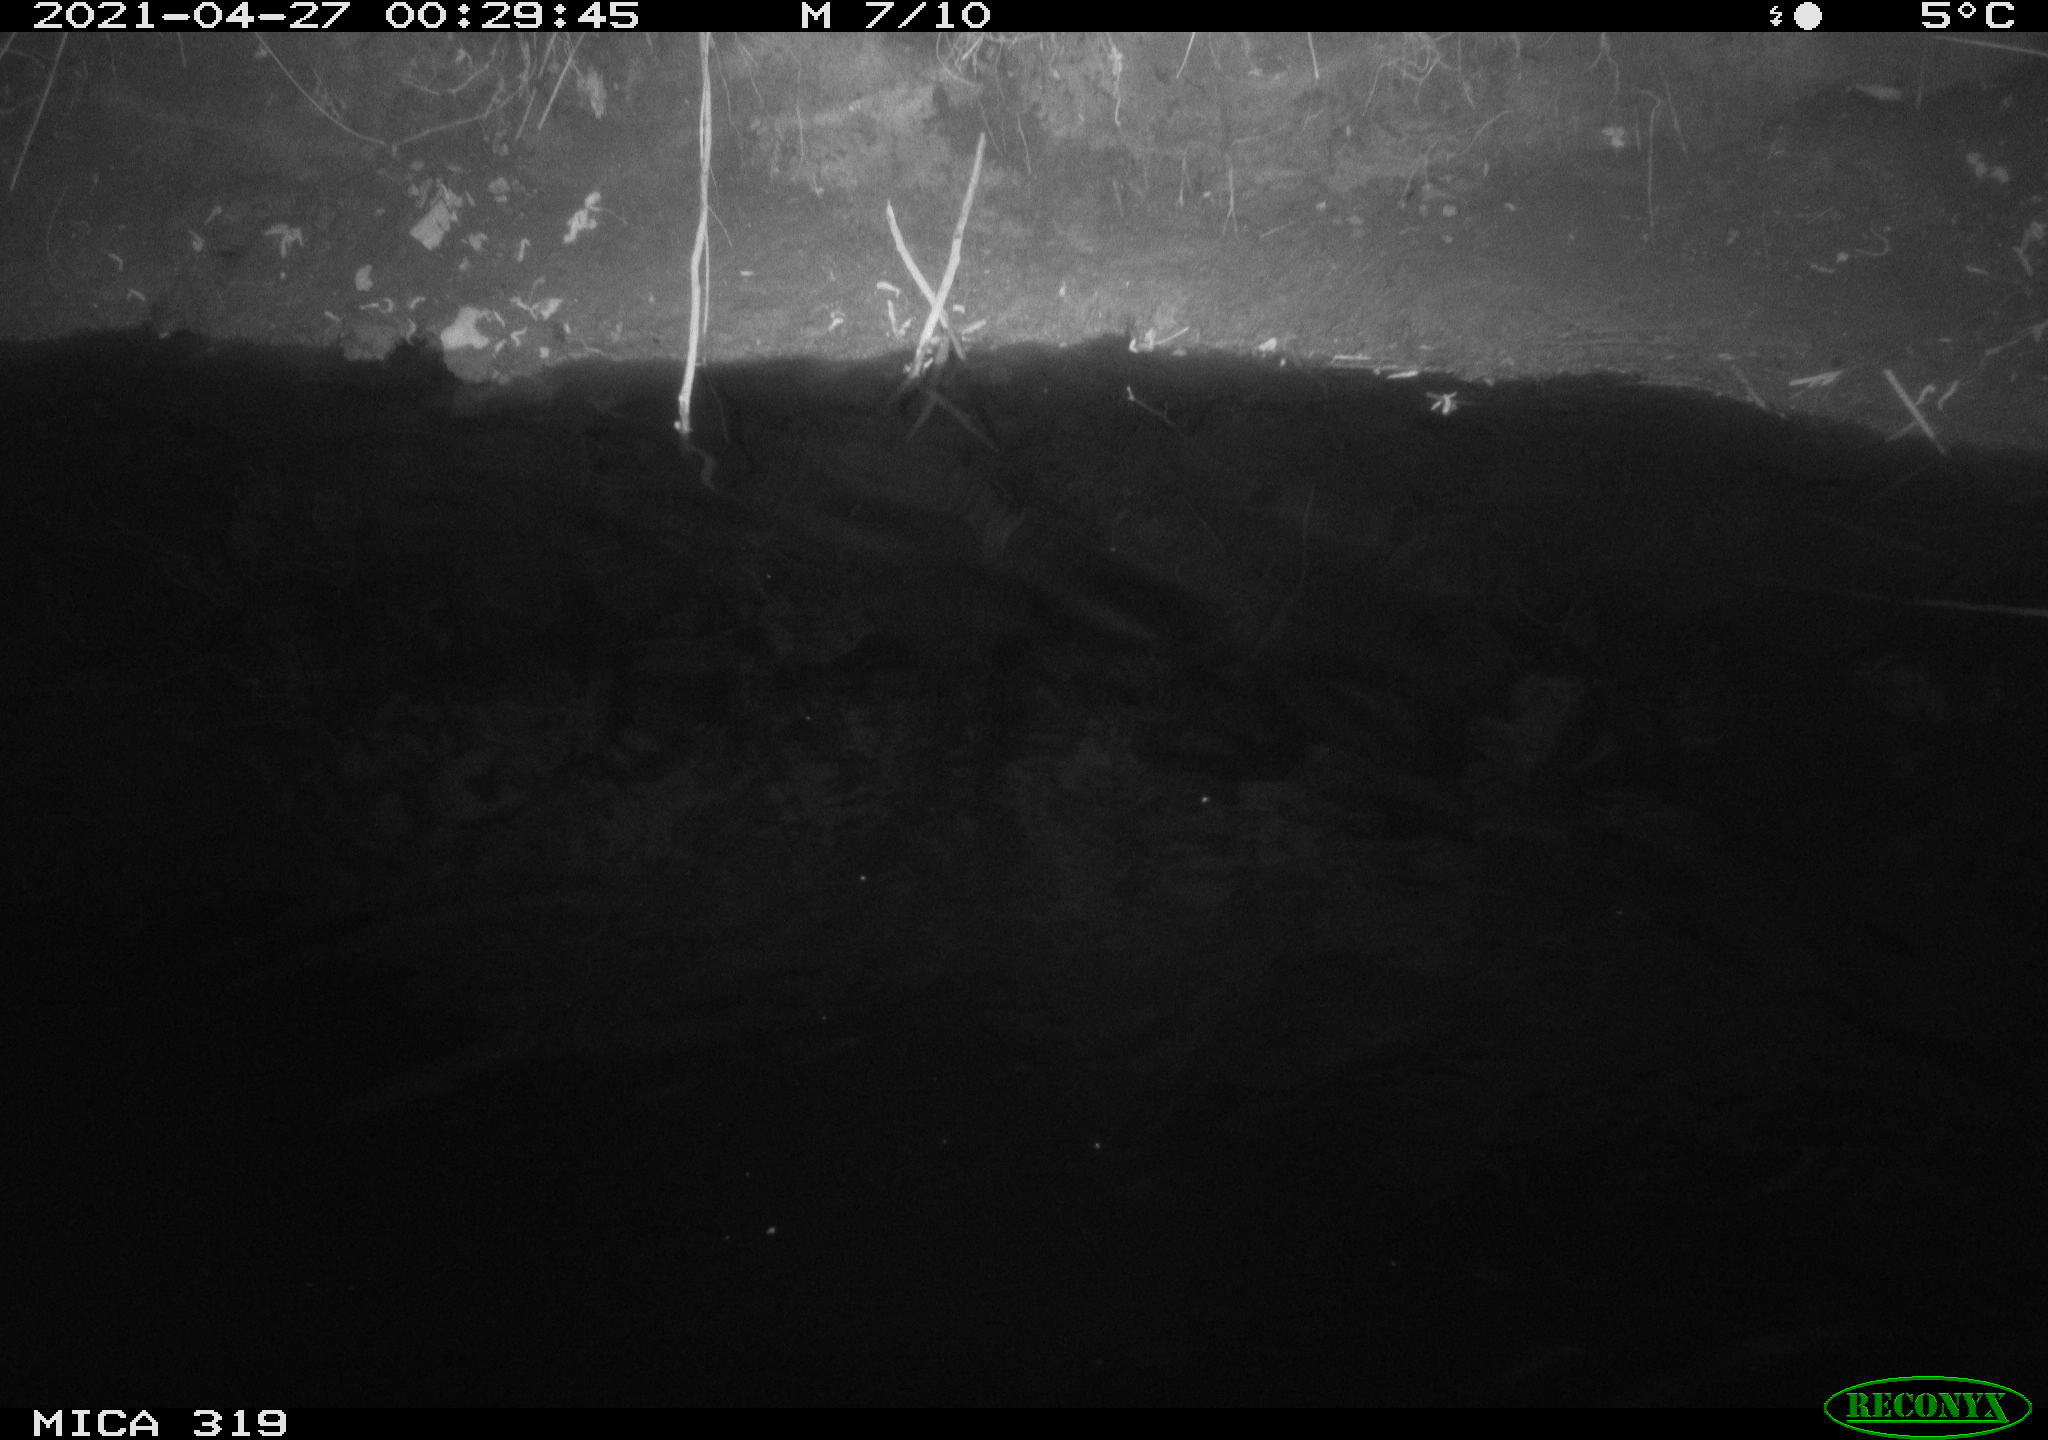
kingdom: Animalia
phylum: Chordata
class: Aves
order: Anseriformes
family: Anatidae
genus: Anas
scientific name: Anas platyrhynchos
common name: Mallard
